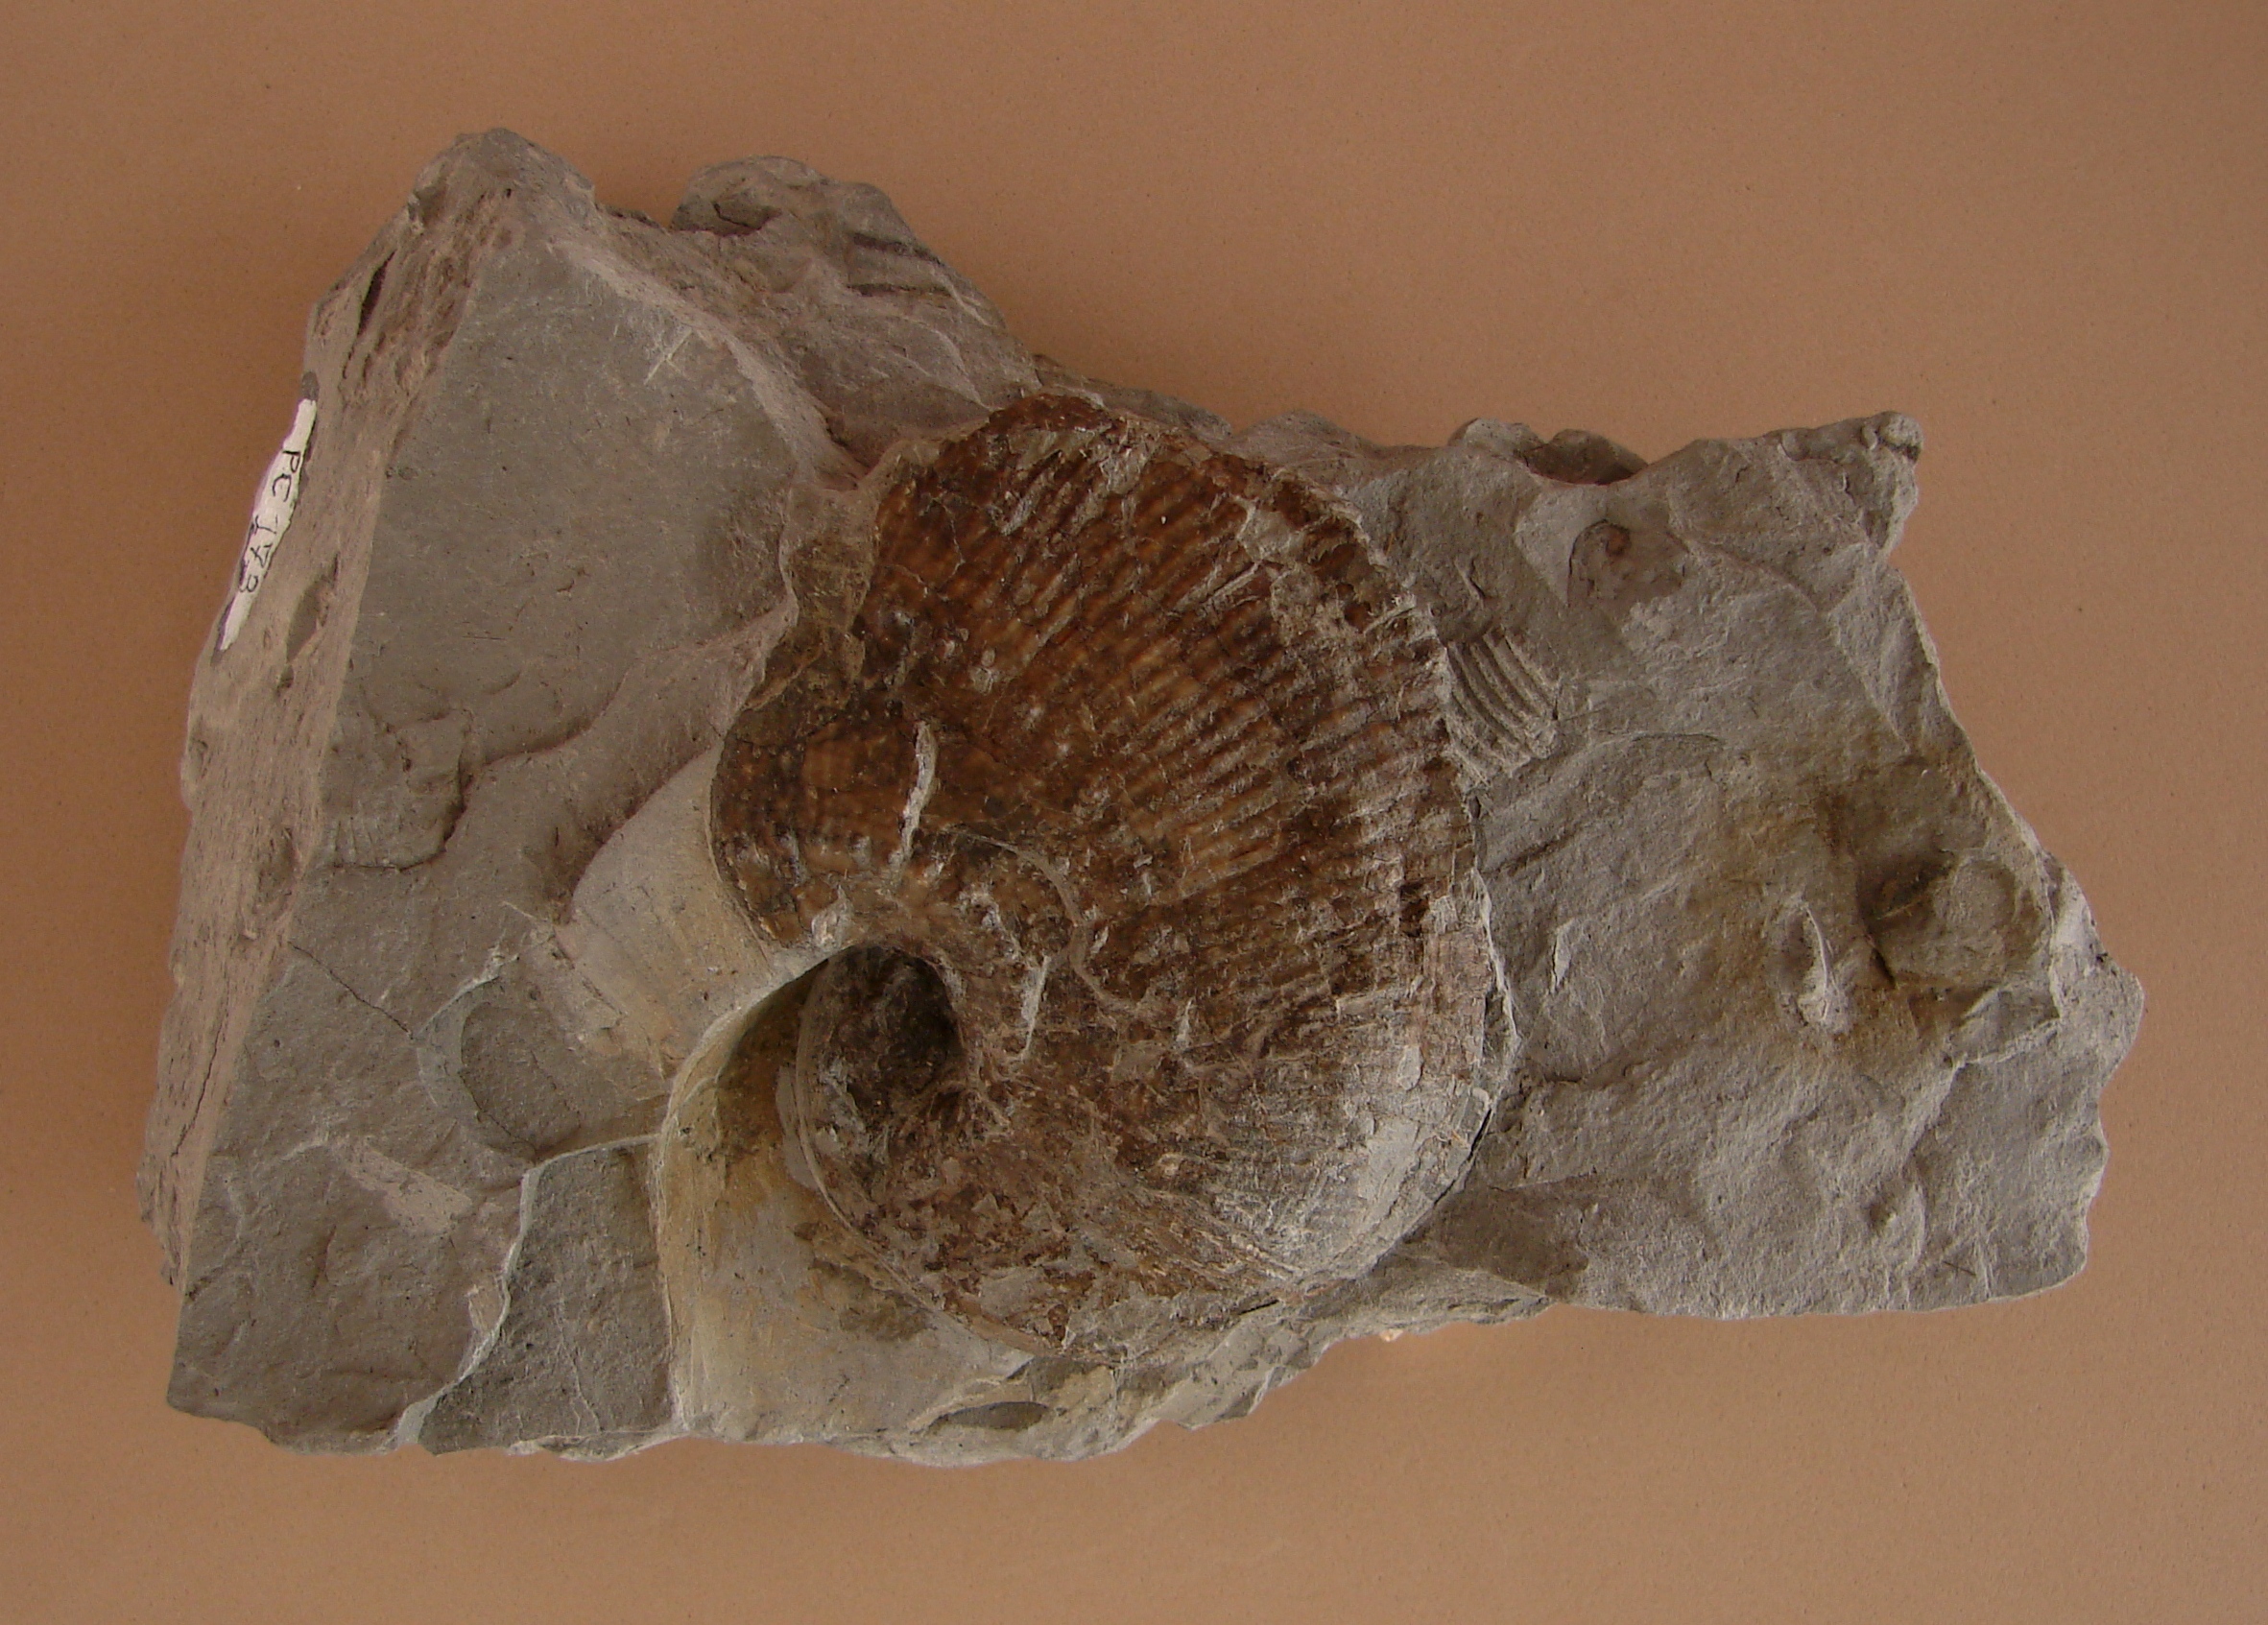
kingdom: Animalia
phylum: Mollusca
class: Cephalopoda
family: Liparoceratidae
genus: Liparoceras
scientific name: Liparoceras
